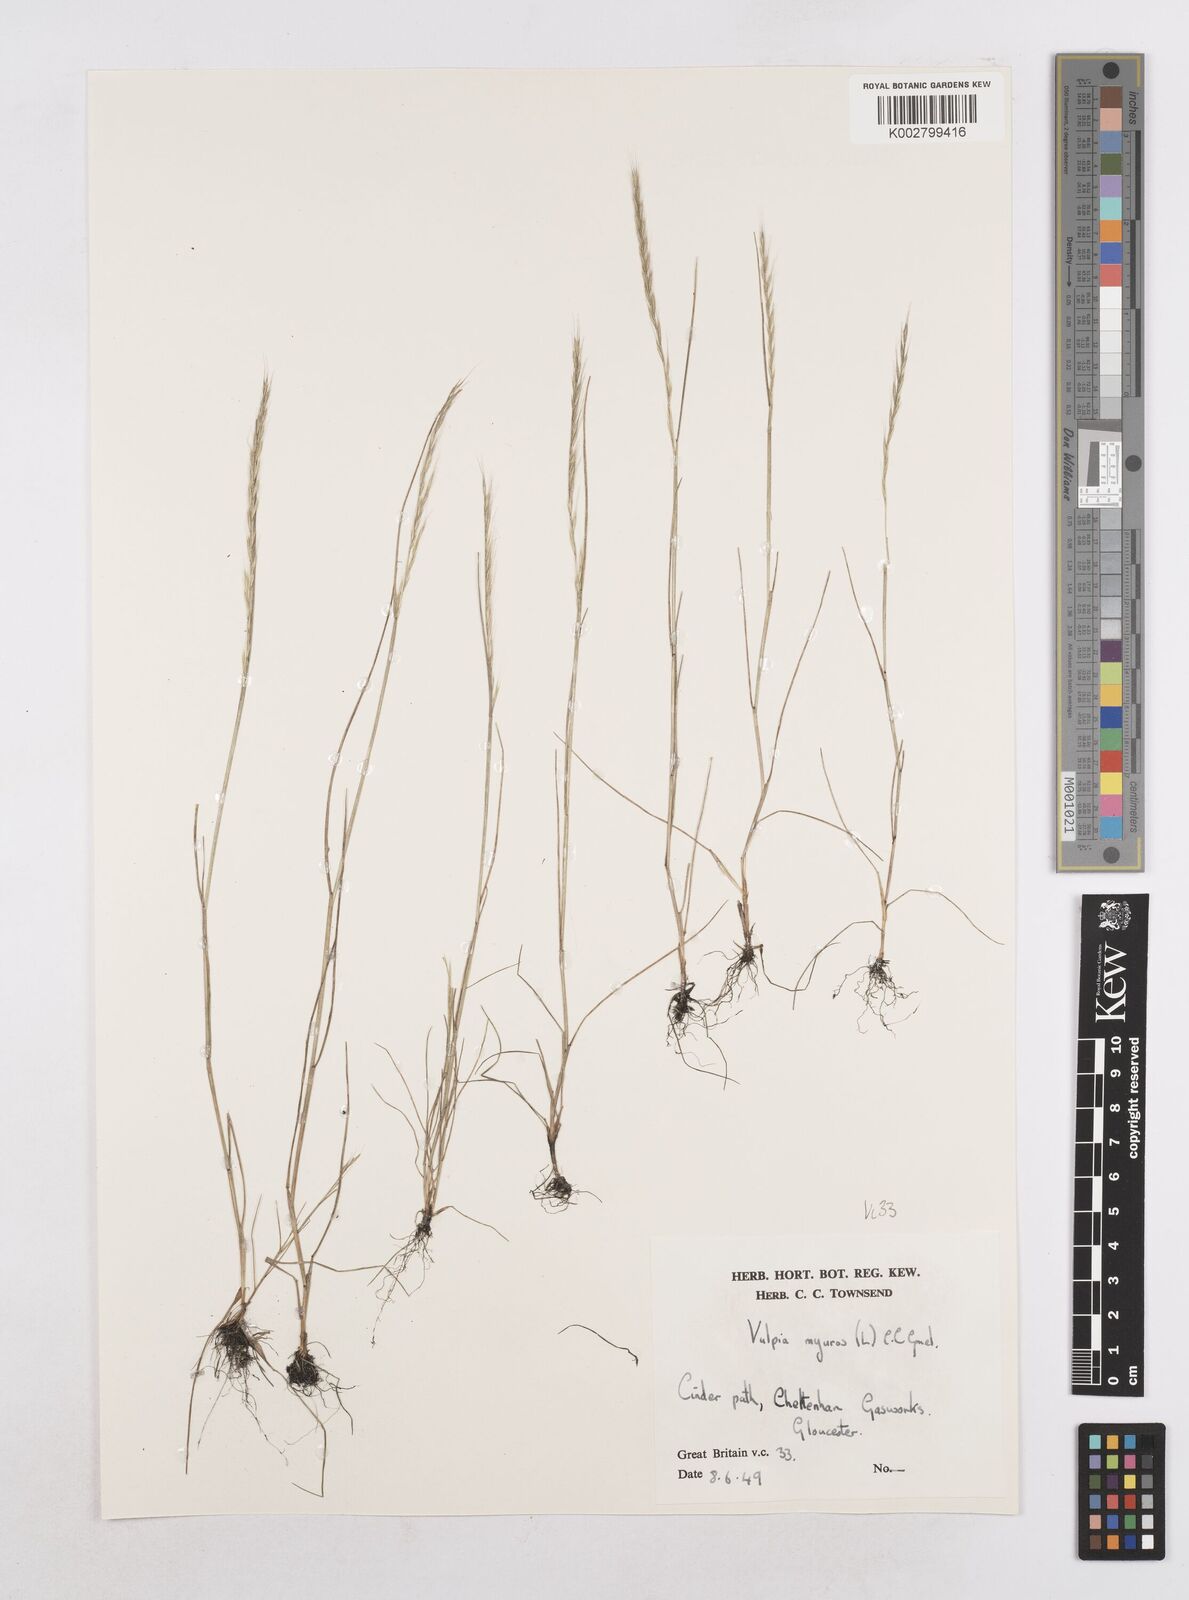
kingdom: Plantae
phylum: Tracheophyta
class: Liliopsida
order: Poales
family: Poaceae
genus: Festuca
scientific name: Festuca myuros
